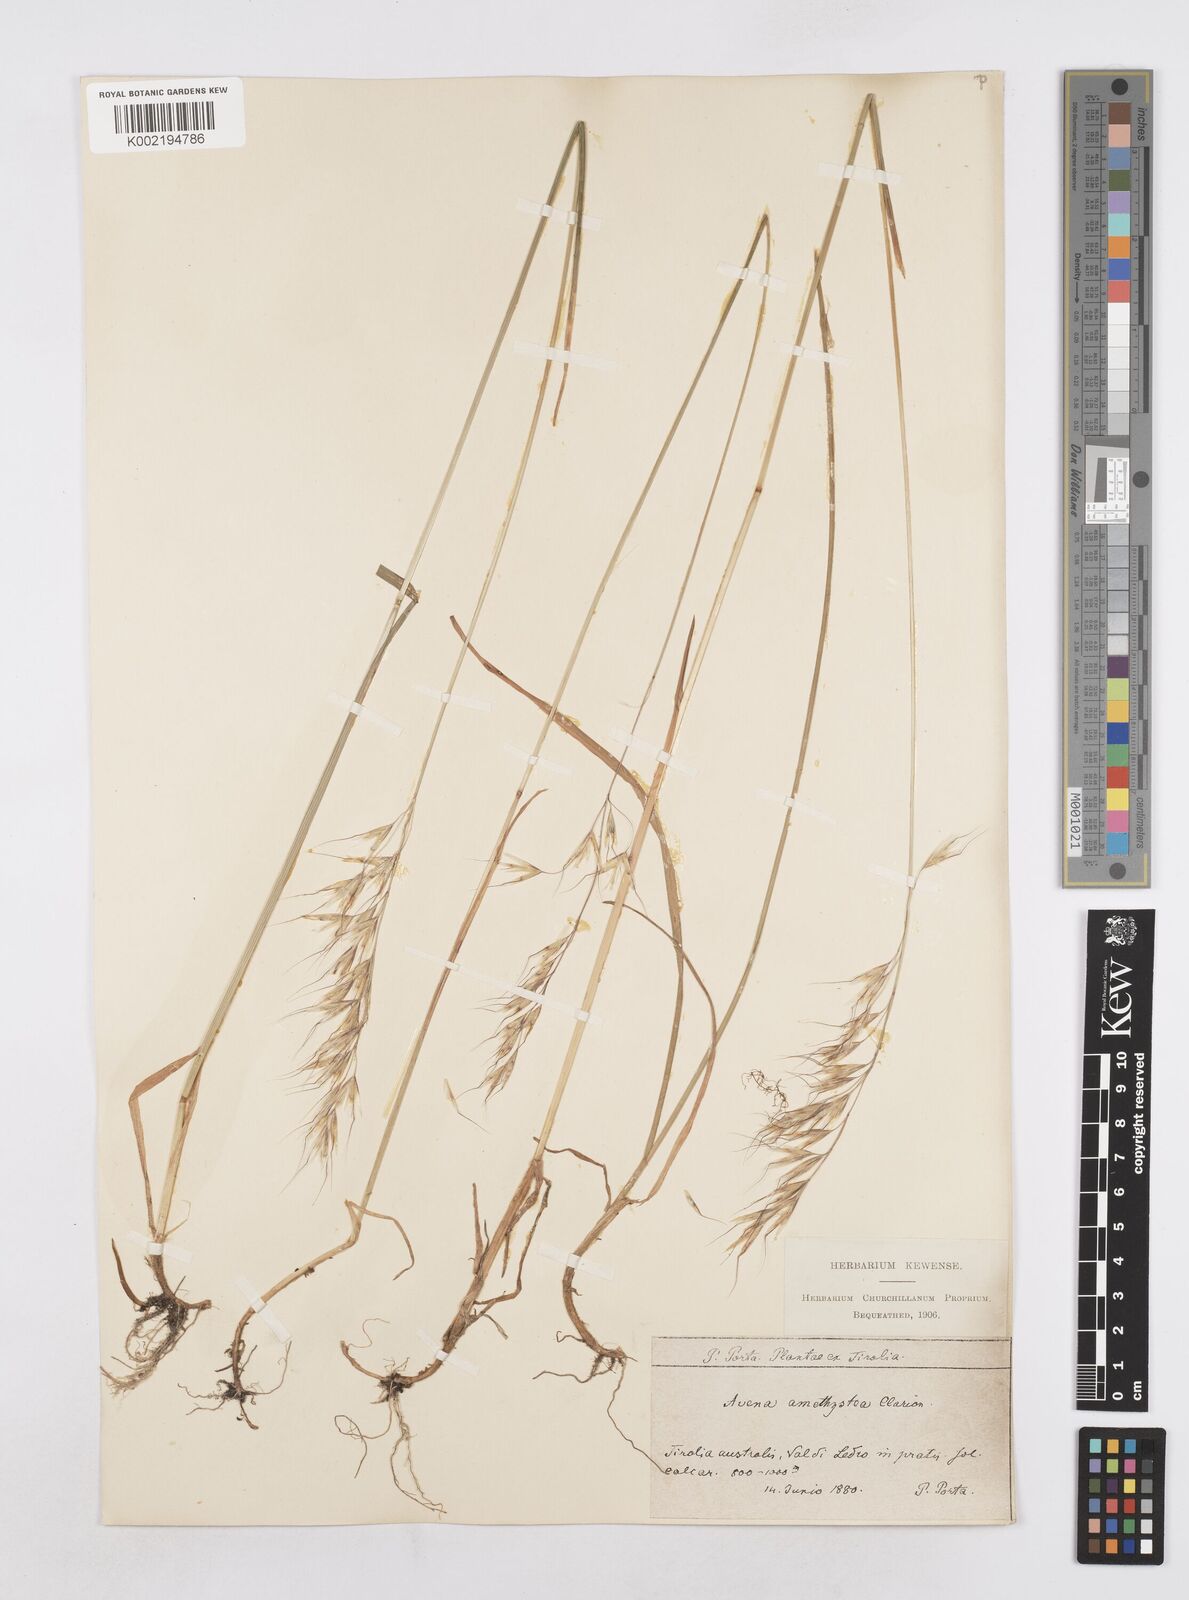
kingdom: Plantae
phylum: Tracheophyta
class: Liliopsida
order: Poales
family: Poaceae
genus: Avenula
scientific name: Avenula pubescens
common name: Downy alpine oatgrass
